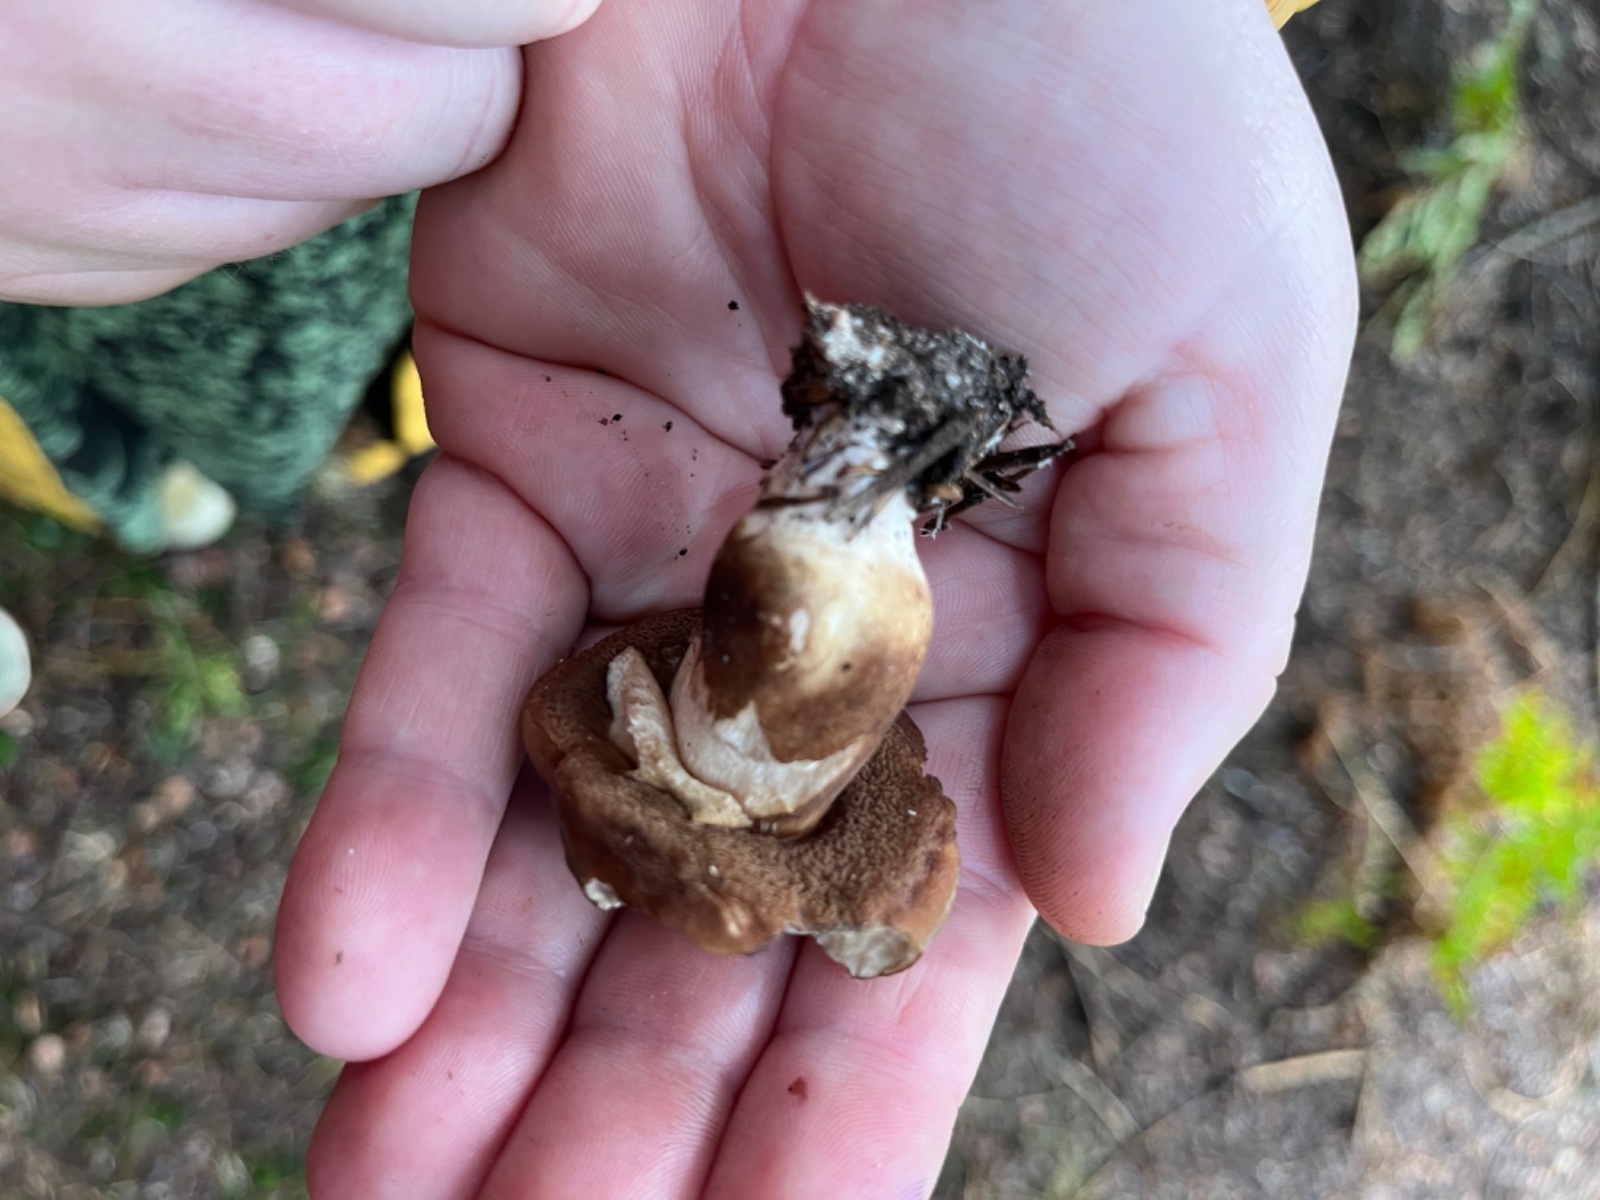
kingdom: Fungi
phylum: Basidiomycota
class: Agaricomycetes
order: Boletales
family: Boletaceae
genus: Porphyrellus
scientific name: Porphyrellus porphyrosporus
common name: sodrørhat
